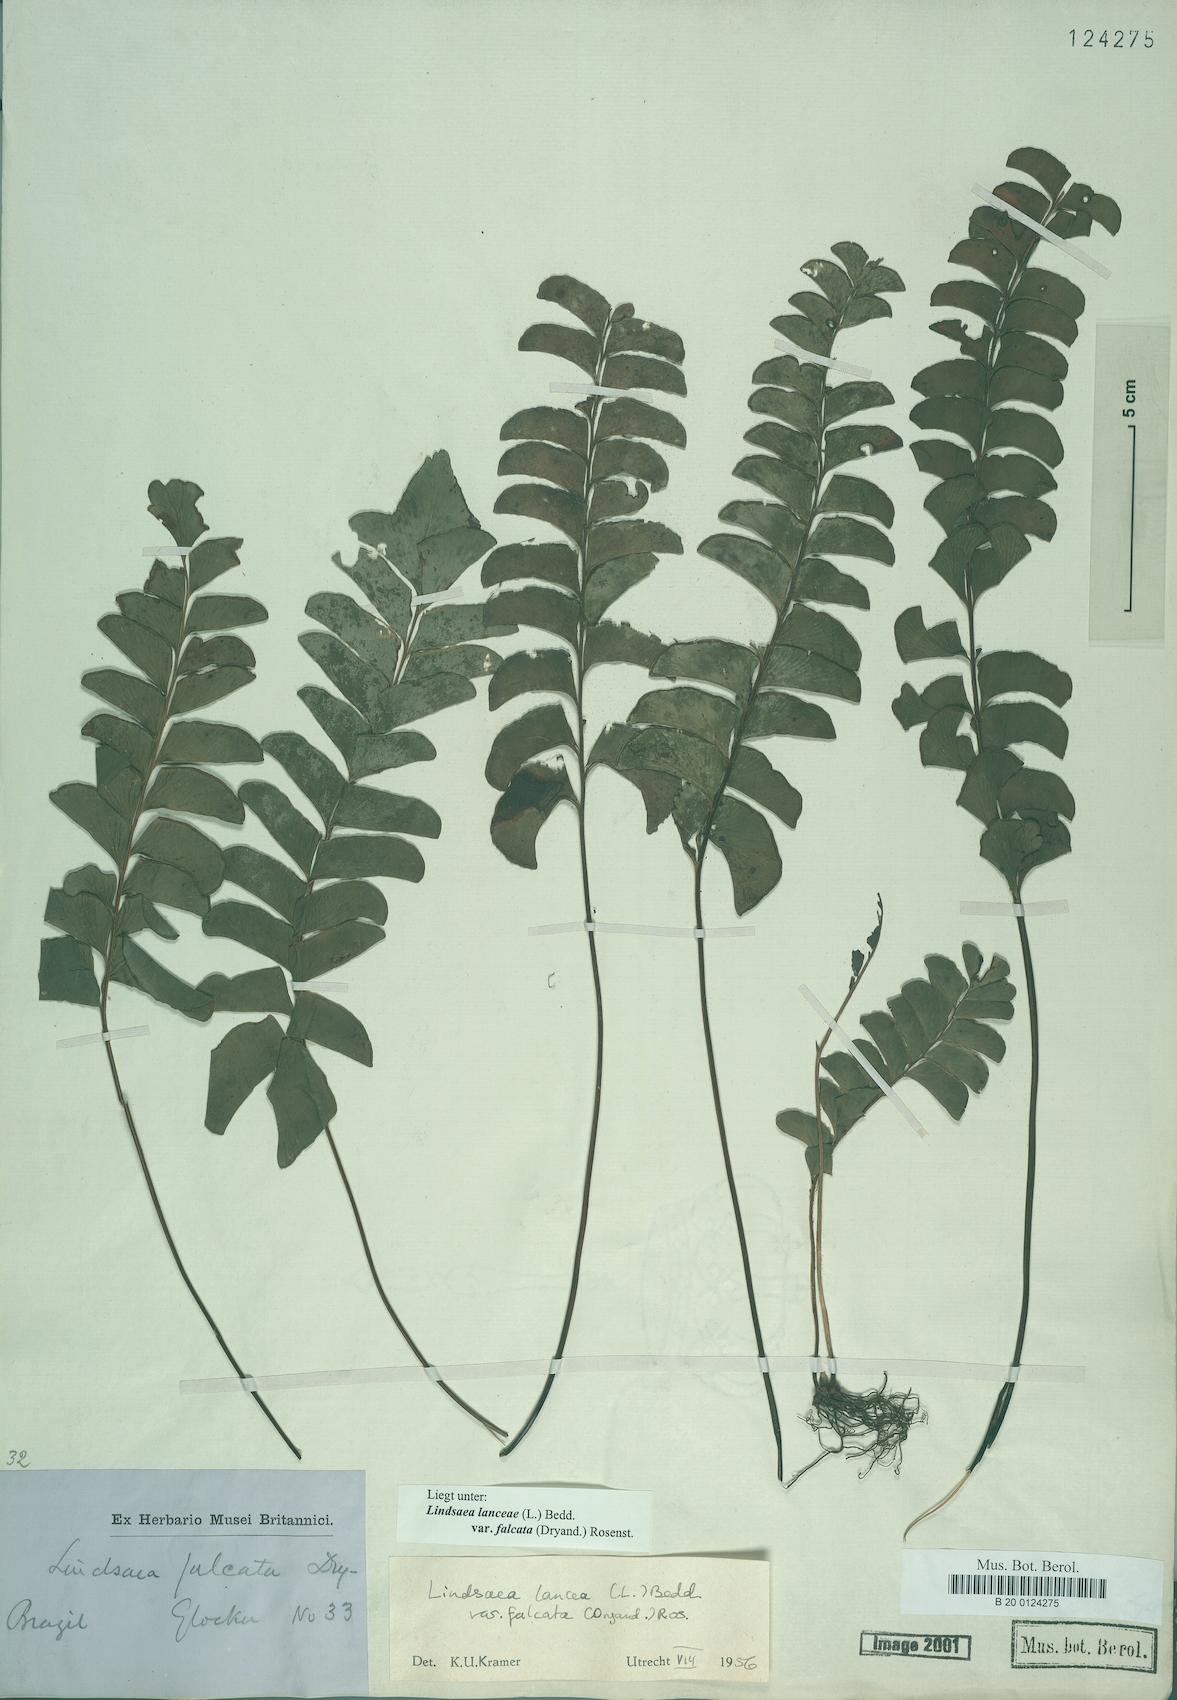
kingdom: Plantae
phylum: Tracheophyta
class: Polypodiopsida
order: Polypodiales
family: Lindsaeaceae
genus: Lindsaea
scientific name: Lindsaea falcata
